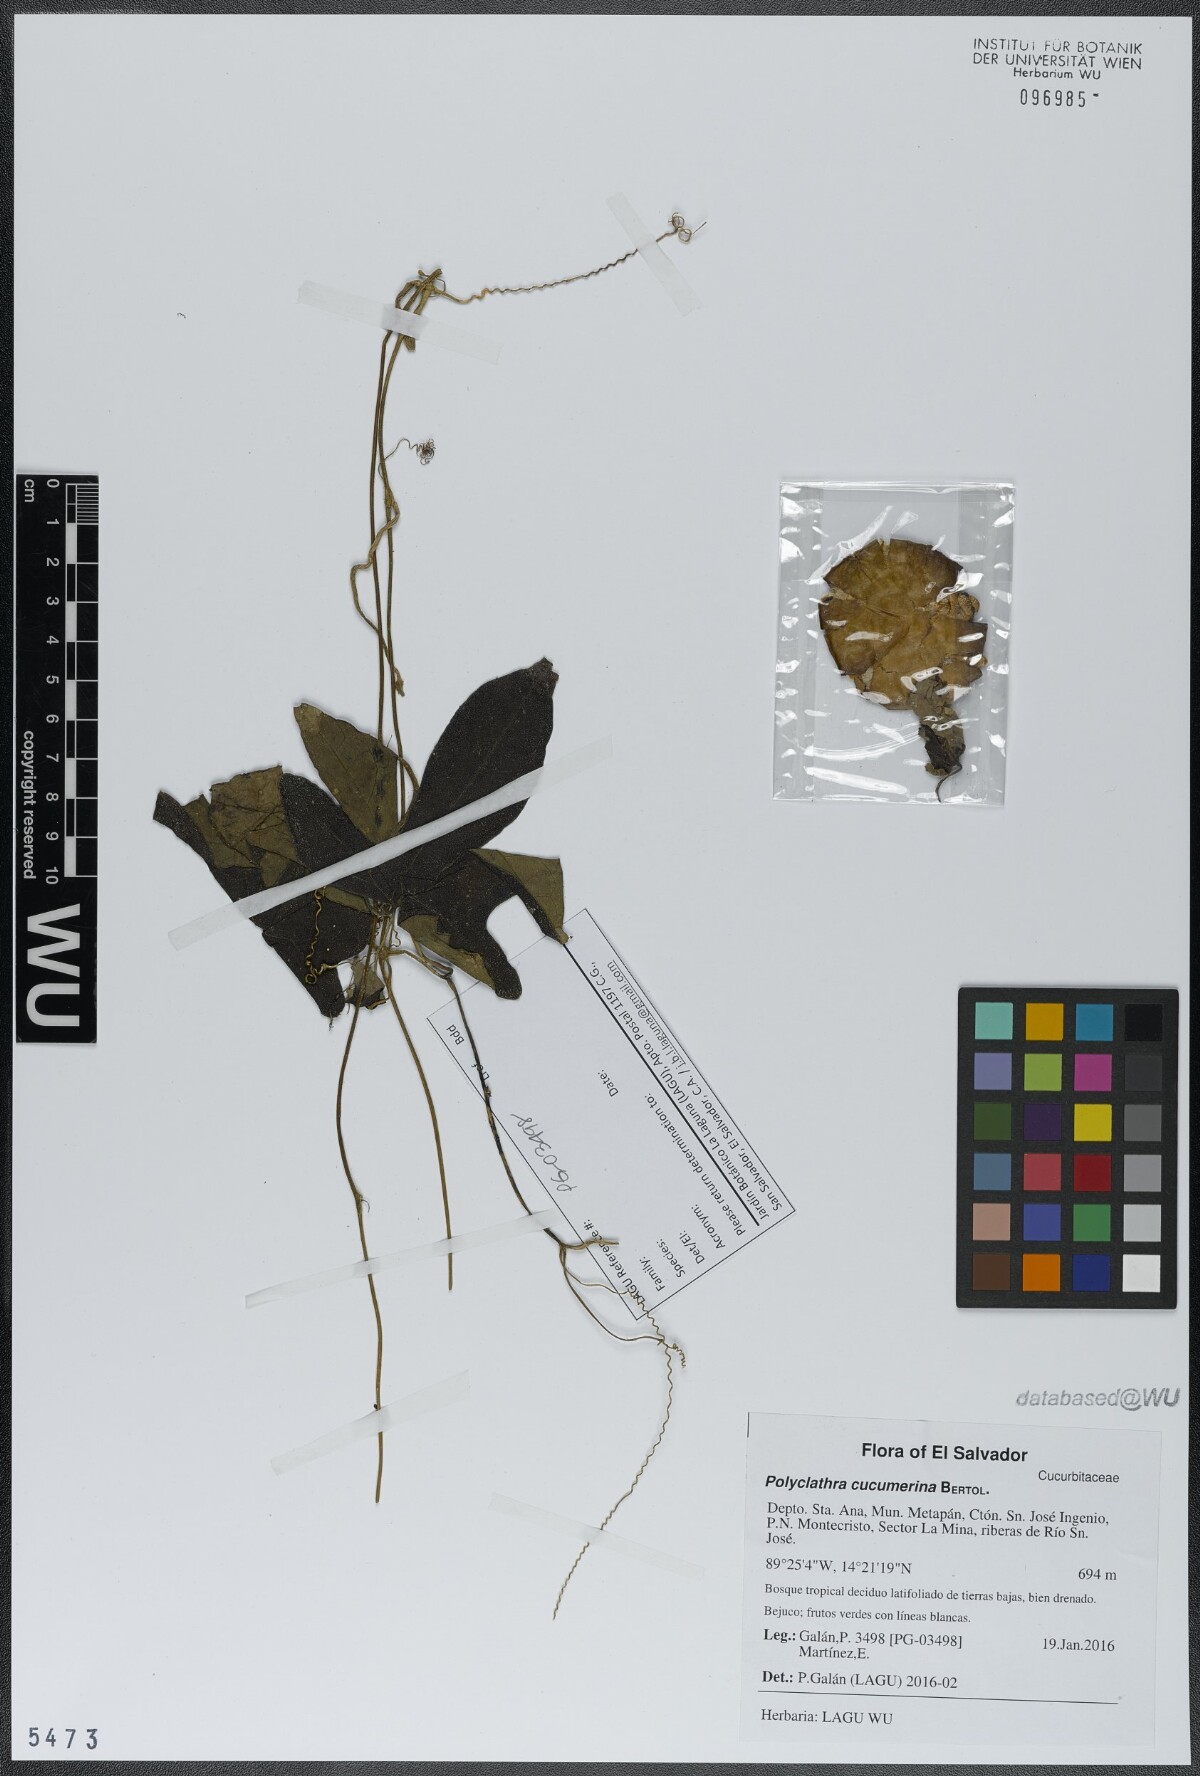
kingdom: Plantae
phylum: Tracheophyta
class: Magnoliopsida
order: Cucurbitales
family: Cucurbitaceae
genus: Polyclathra
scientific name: Polyclathra cucumerina
